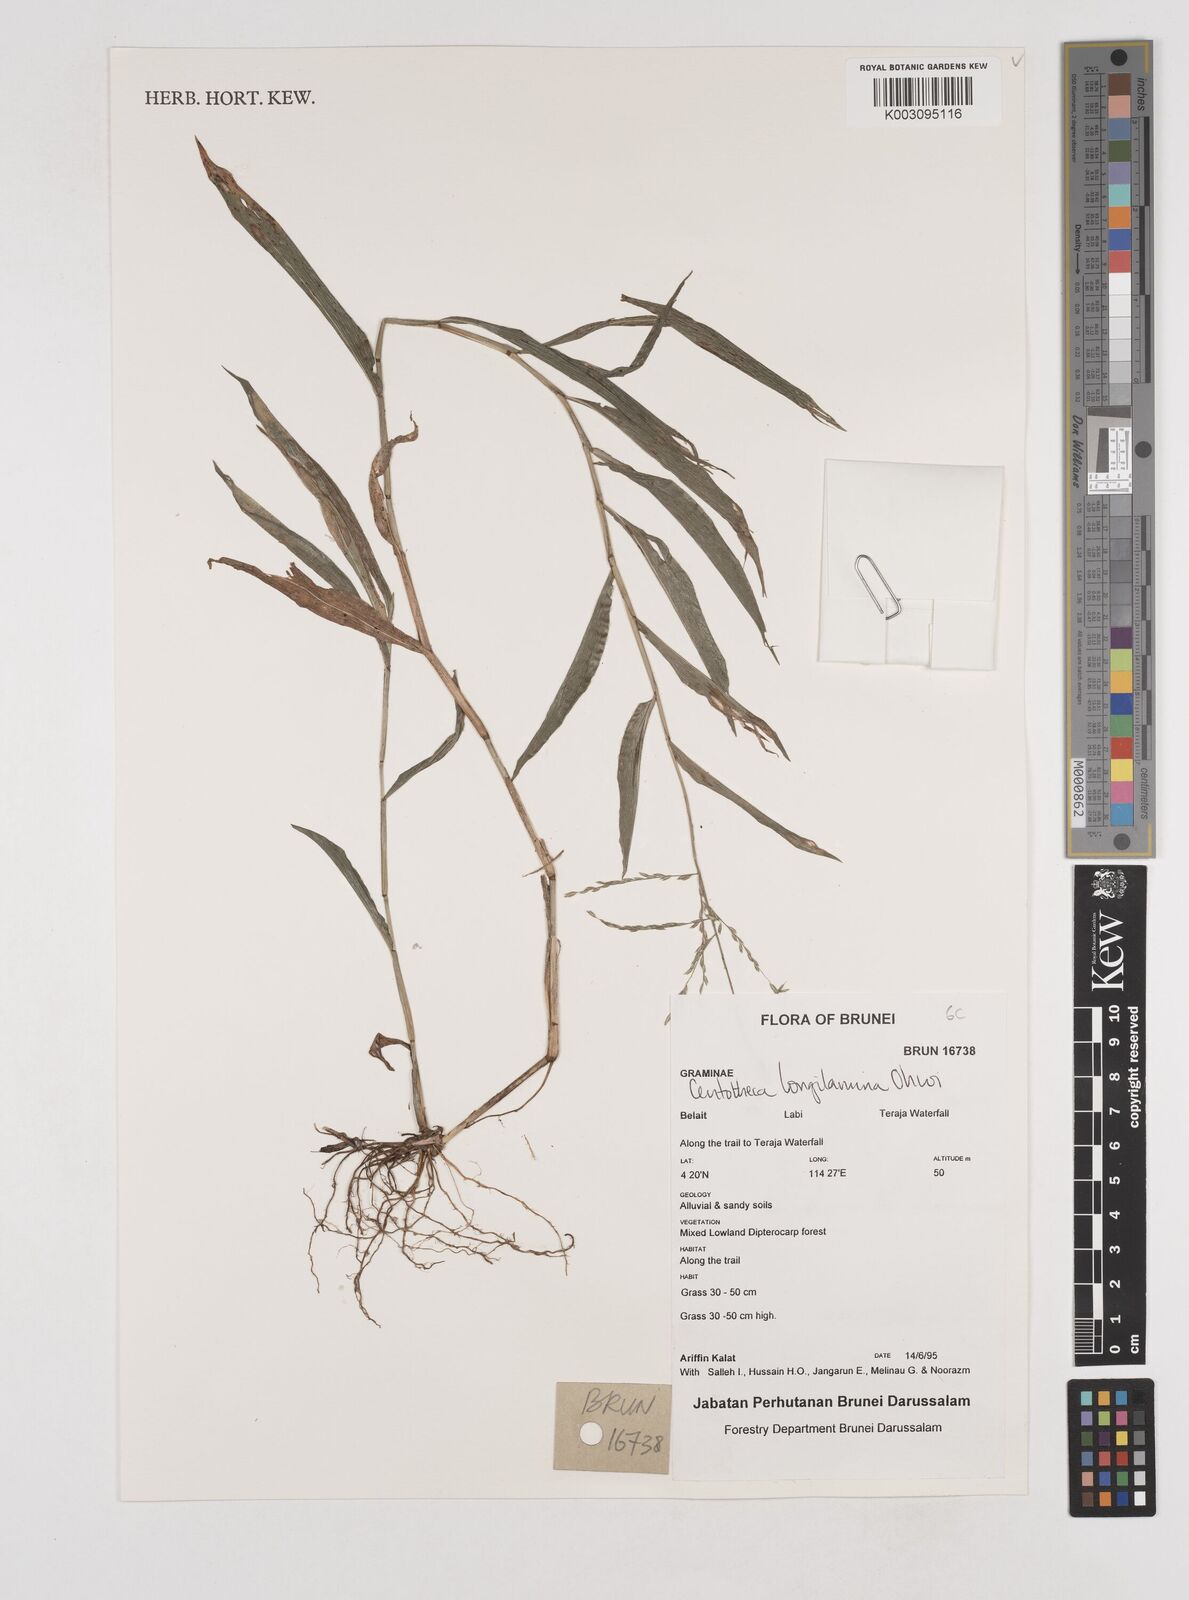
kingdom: Plantae
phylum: Tracheophyta
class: Liliopsida
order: Poales
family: Poaceae
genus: Centotheca
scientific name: Centotheca lappacea
